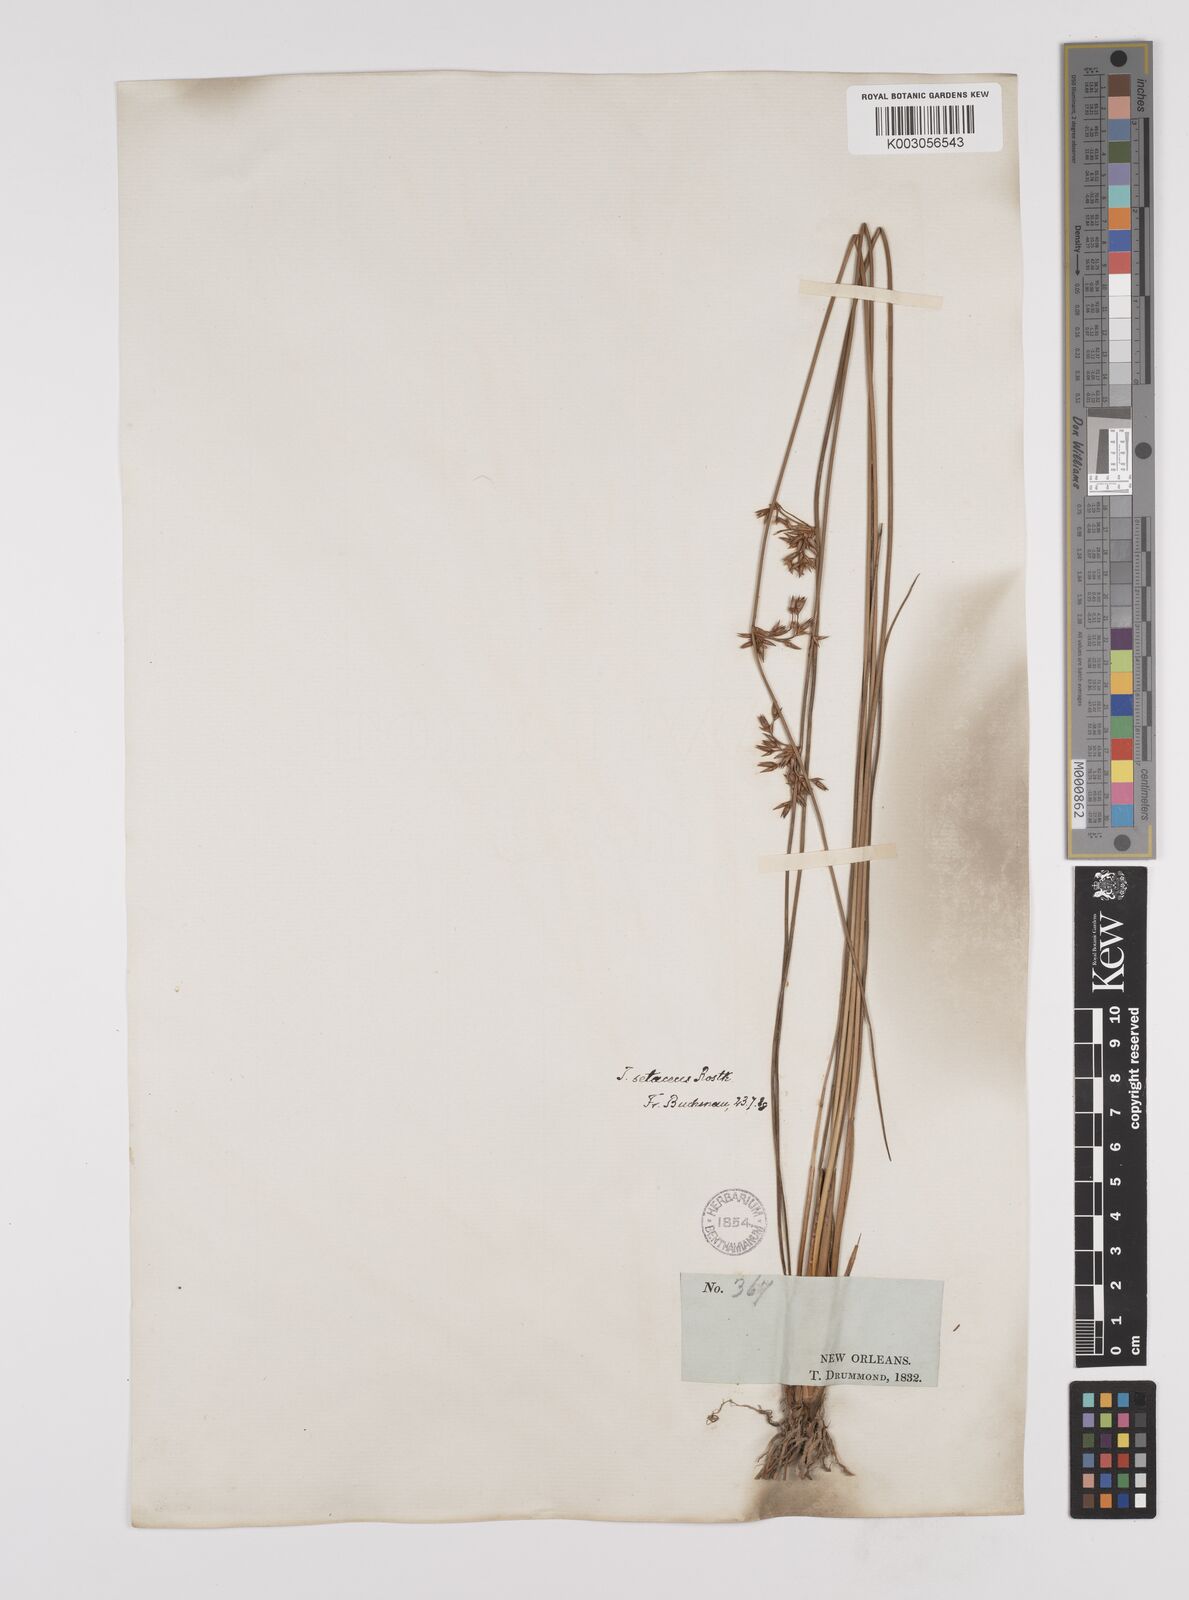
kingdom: Plantae
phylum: Tracheophyta
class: Liliopsida
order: Poales
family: Juncaceae
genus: Juncus
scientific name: Juncus balticus
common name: Baltic rush
